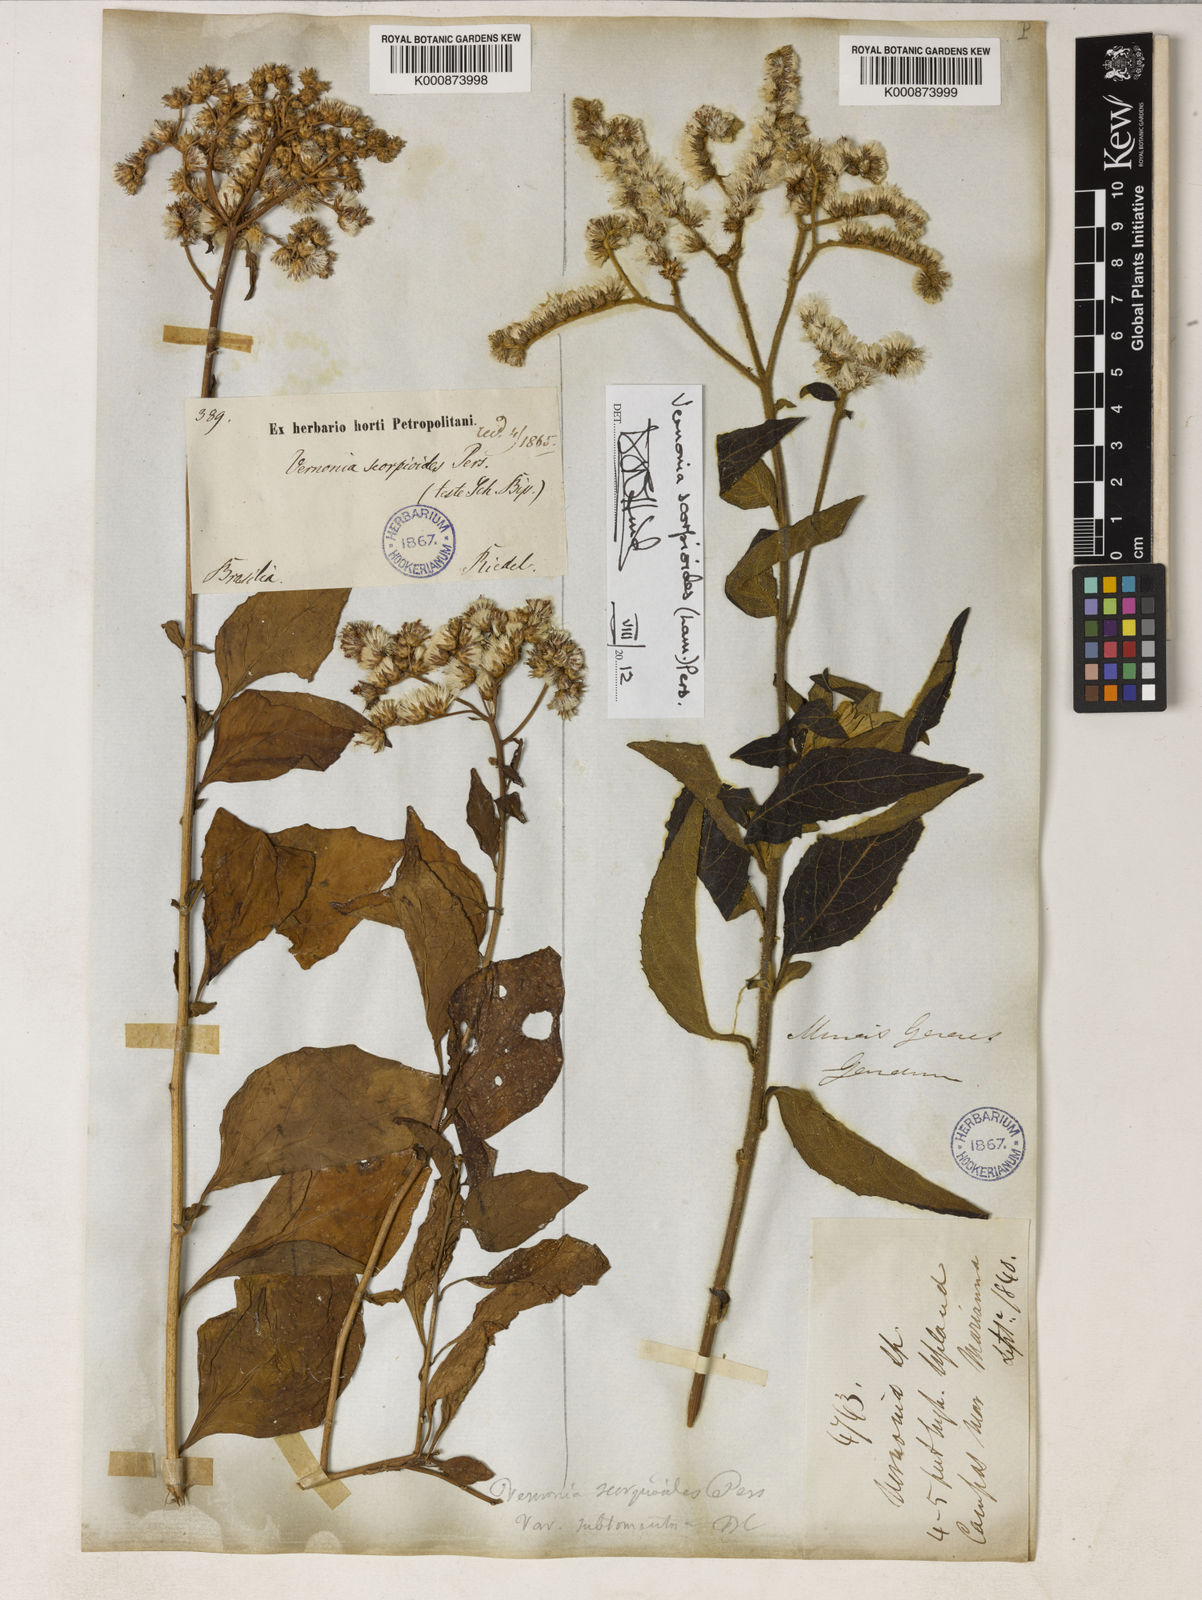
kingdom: Plantae
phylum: Tracheophyta
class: Magnoliopsida
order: Asterales
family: Asteraceae
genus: Cyrtocymura
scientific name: Cyrtocymura scorpioides
